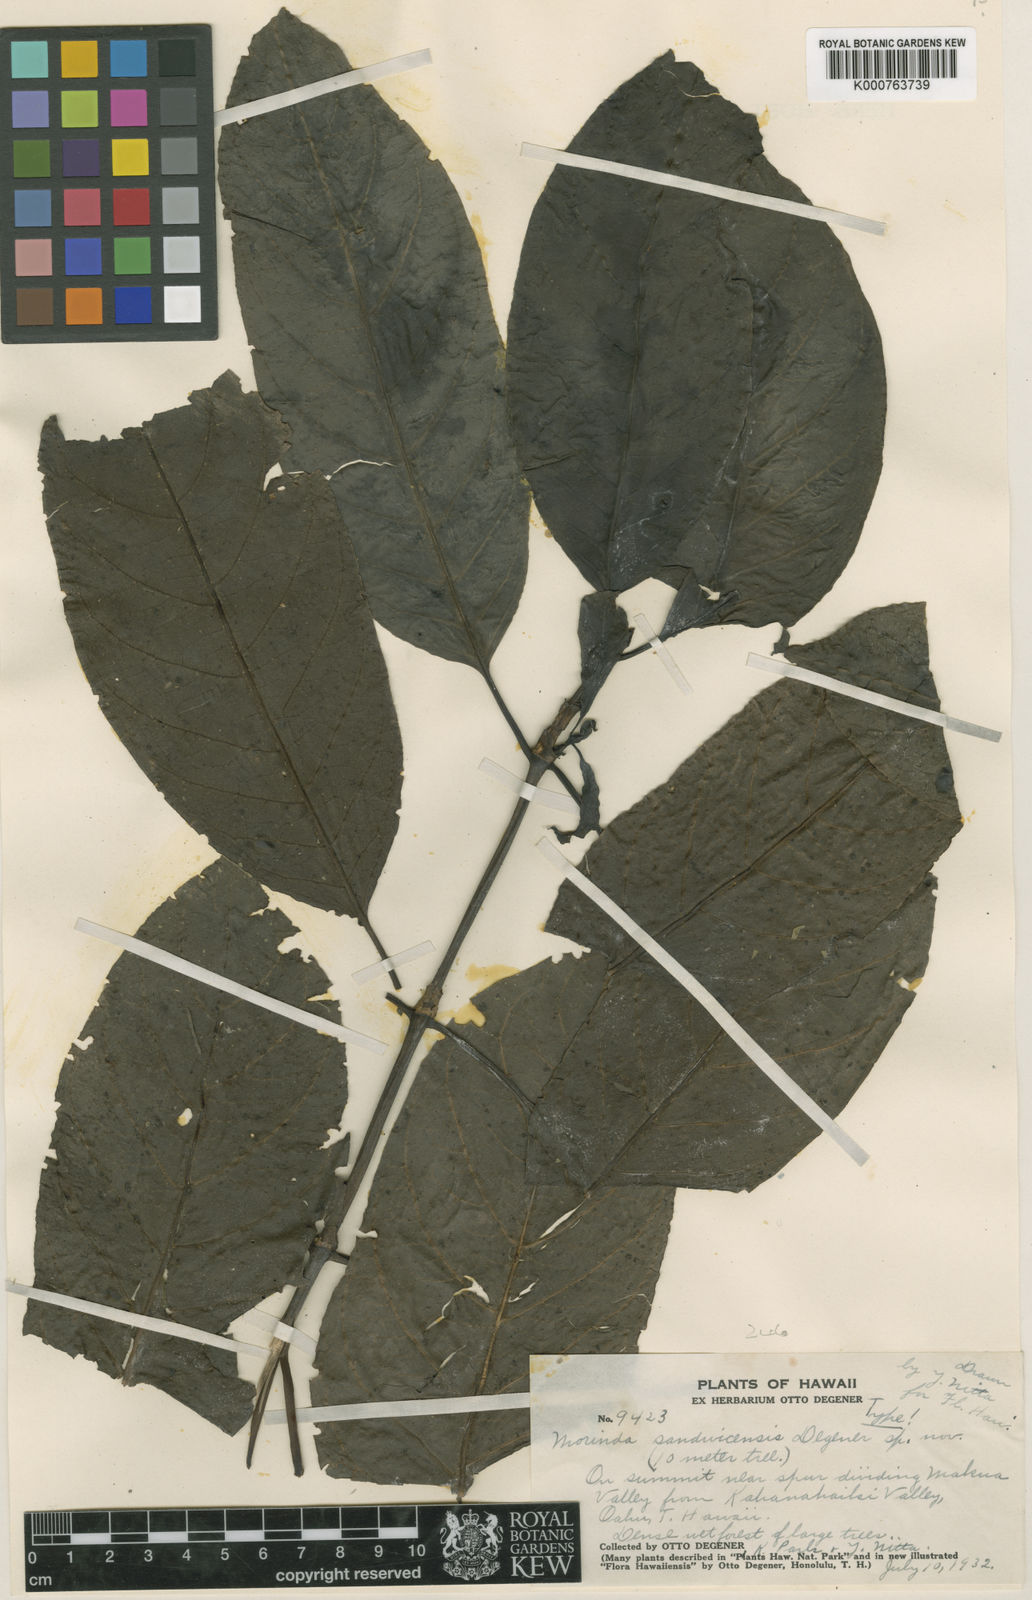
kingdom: Plantae
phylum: Tracheophyta
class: Magnoliopsida
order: Gentianales
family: Rubiaceae
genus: Gynochthodes
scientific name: Gynochthodes trimera
